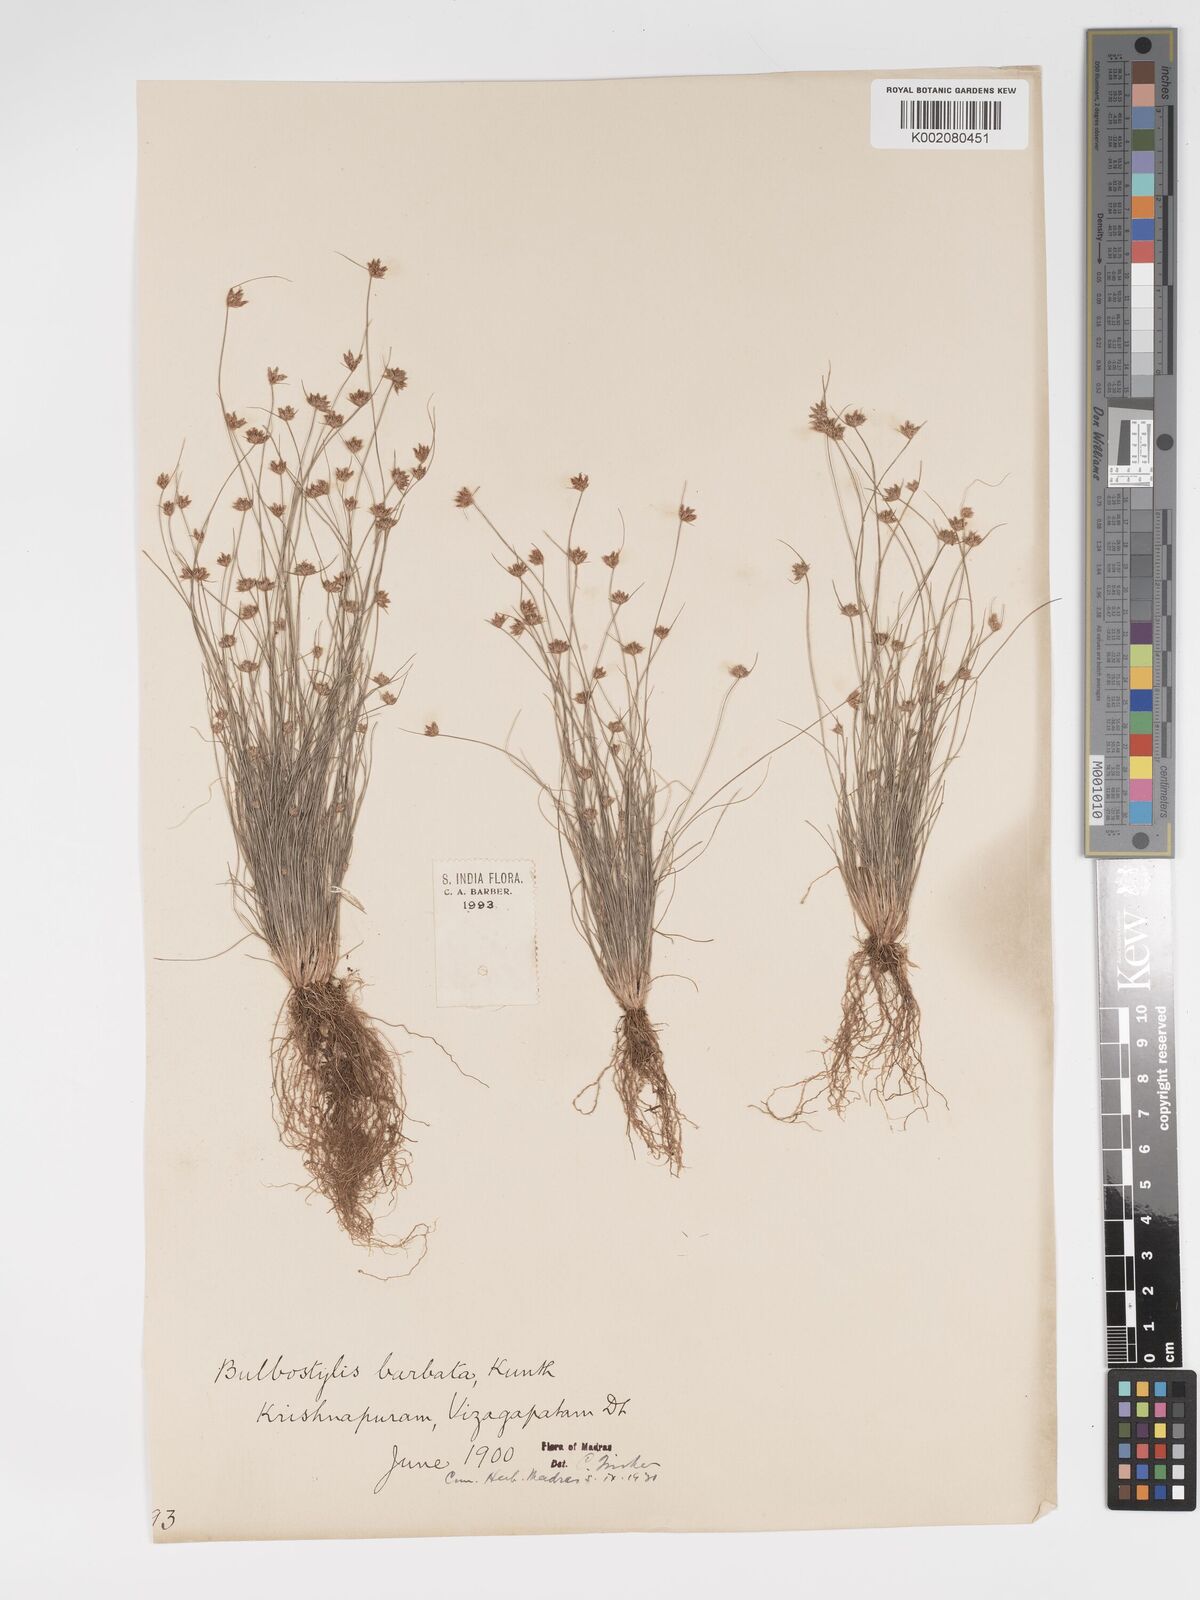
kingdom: Plantae
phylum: Tracheophyta
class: Liliopsida
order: Poales
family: Cyperaceae
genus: Bulbostylis
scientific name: Bulbostylis barbata
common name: Watergrass
